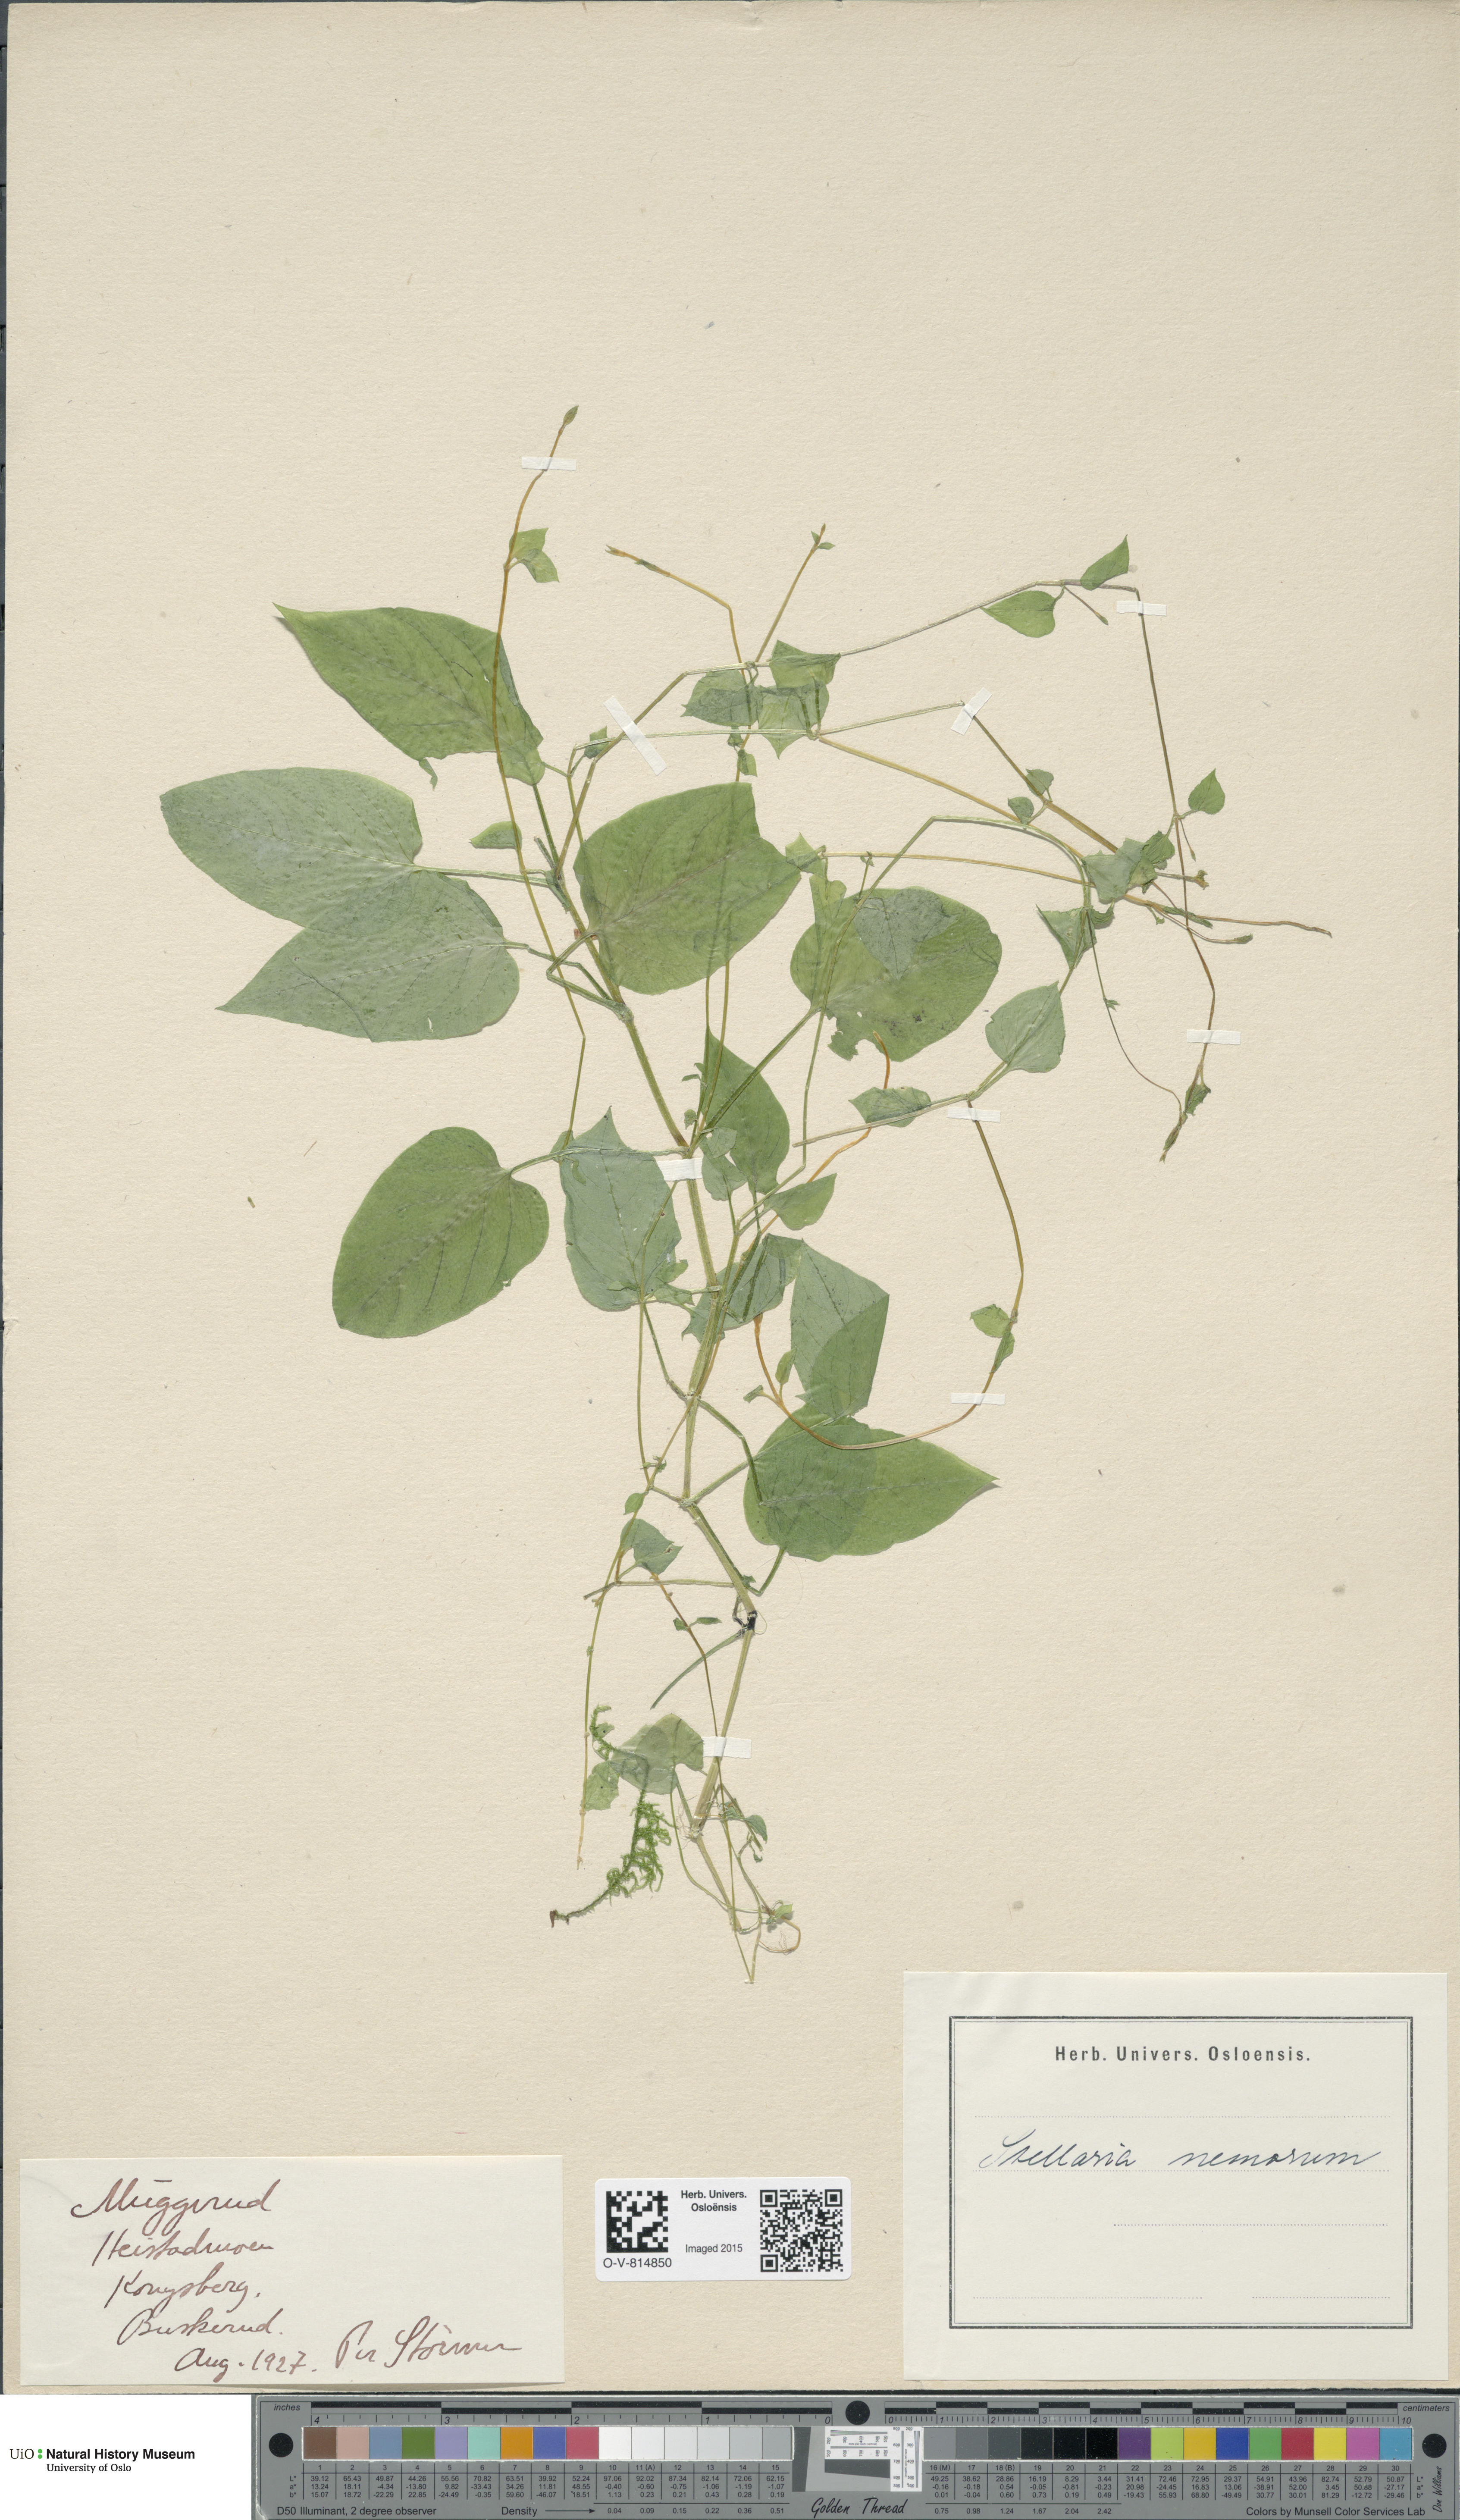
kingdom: Plantae
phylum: Tracheophyta
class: Magnoliopsida
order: Caryophyllales
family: Caryophyllaceae
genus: Stellaria
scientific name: Stellaria nemorum
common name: Wood stitchwort
